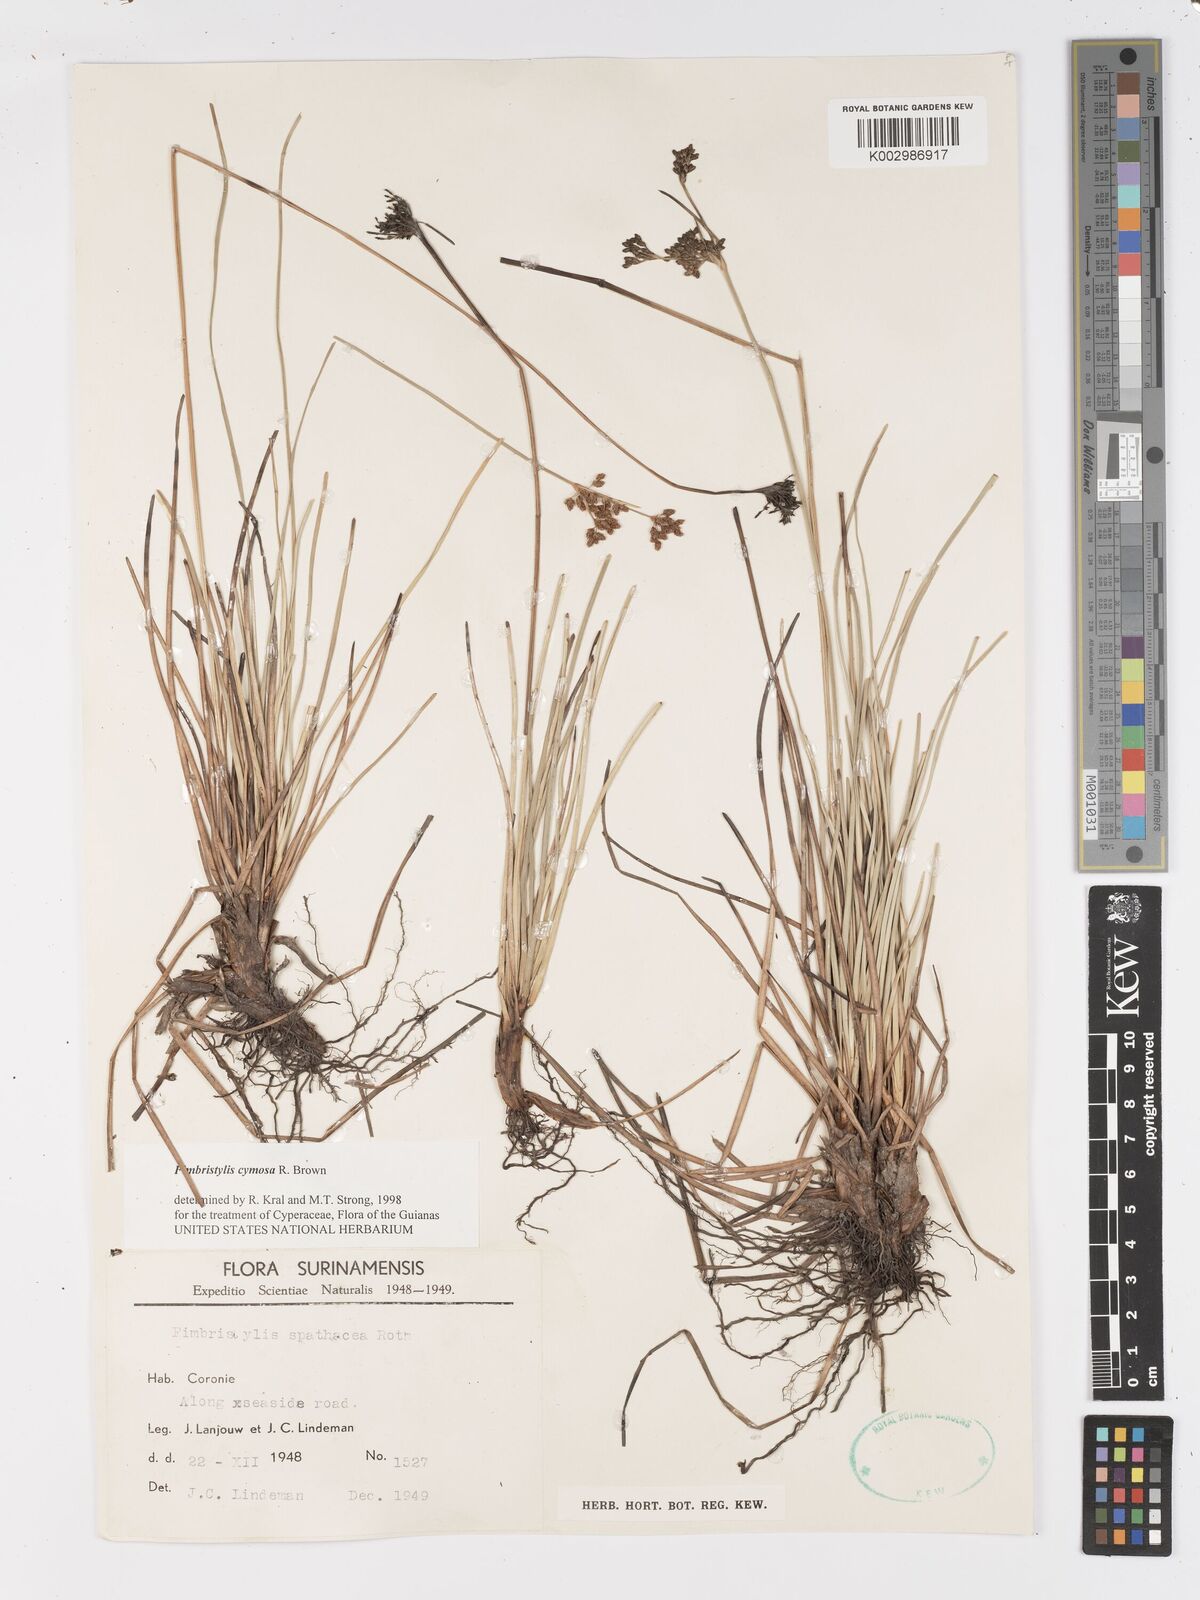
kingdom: Plantae
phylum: Tracheophyta
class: Liliopsida
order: Poales
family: Cyperaceae
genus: Fimbristylis
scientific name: Fimbristylis cymosa
